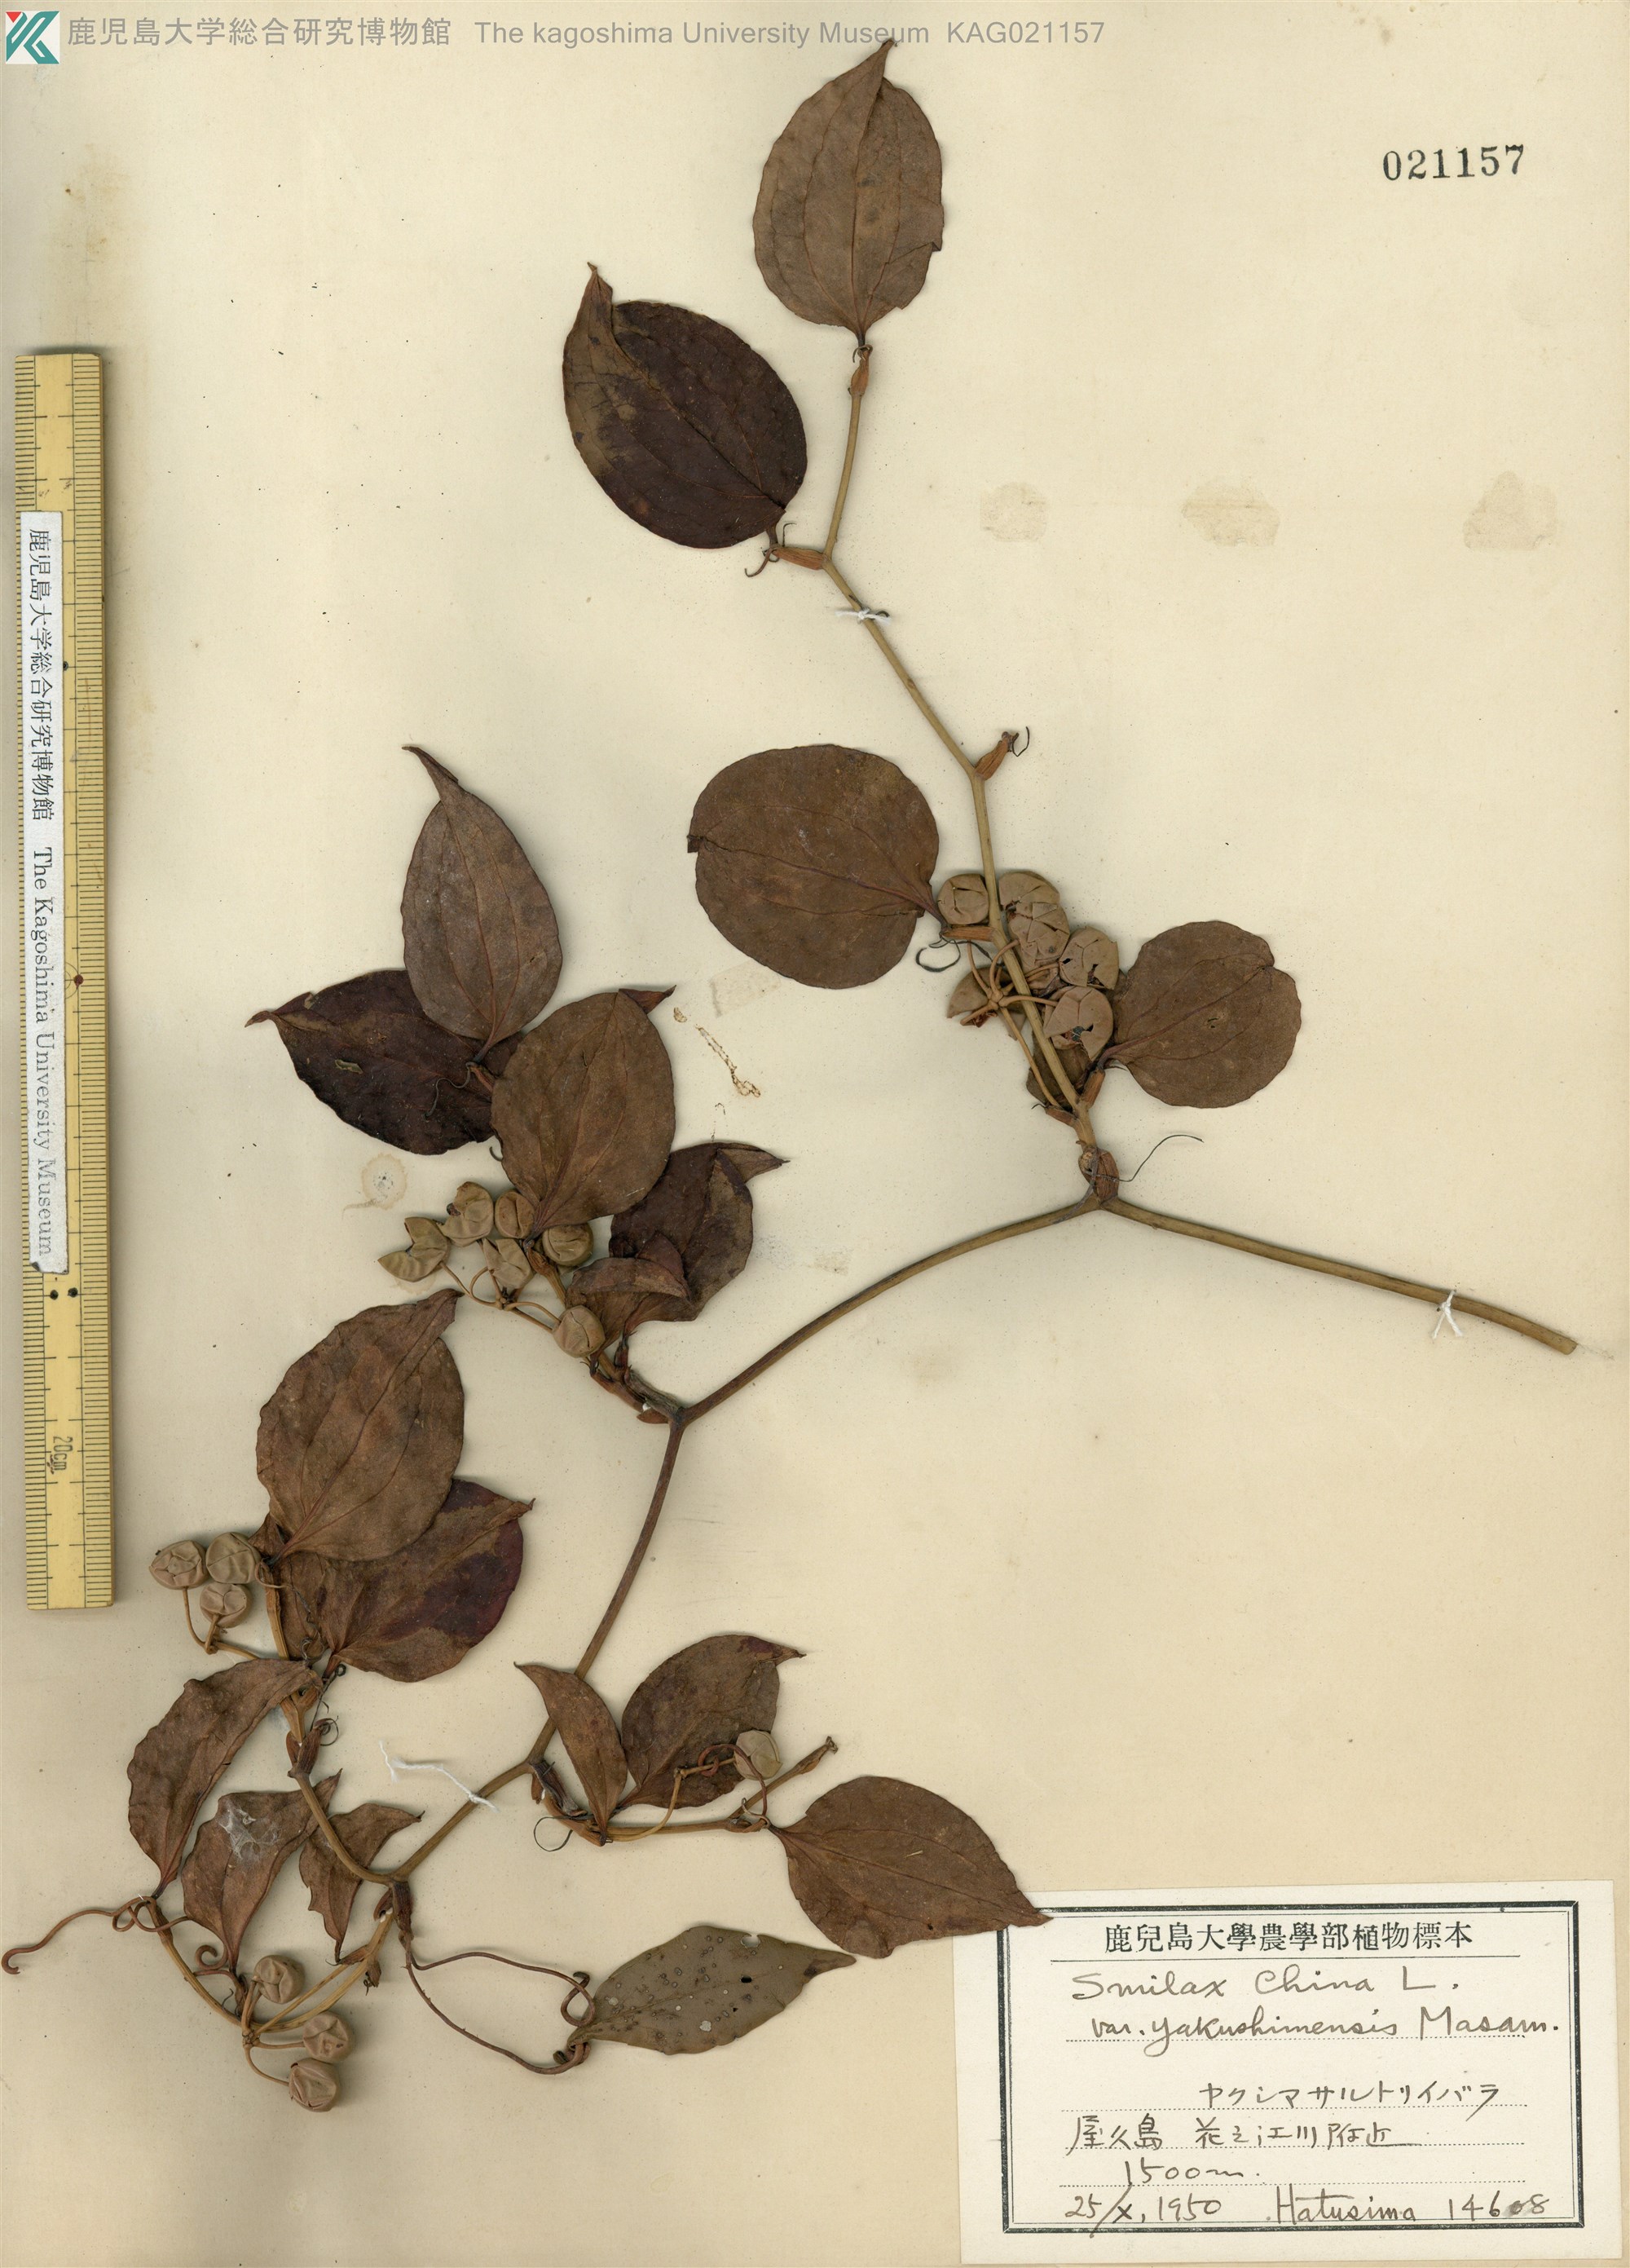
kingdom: Plantae
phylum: Tracheophyta
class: Liliopsida
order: Liliales
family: Smilacaceae
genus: Smilax
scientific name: Smilax china
